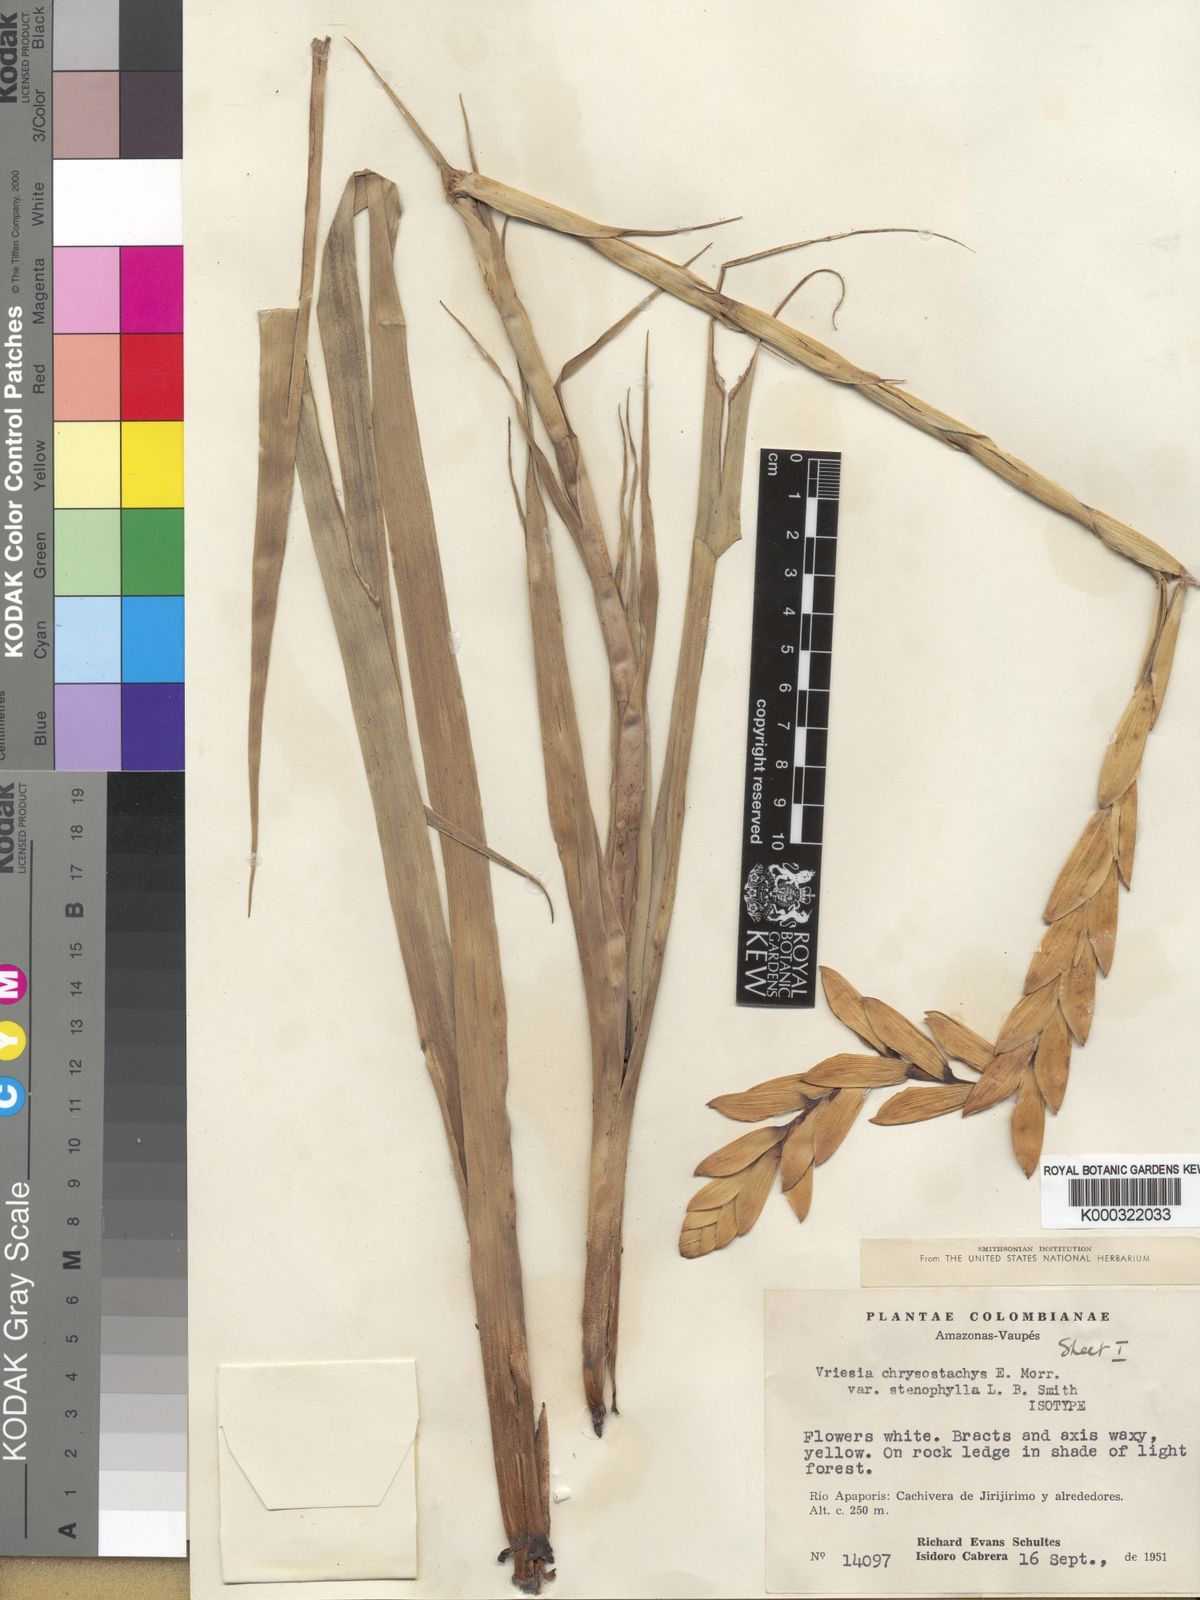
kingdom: Plantae
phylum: Tracheophyta
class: Liliopsida
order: Poales
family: Bromeliaceae
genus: Goudaea
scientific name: Goudaea chrysostachys
